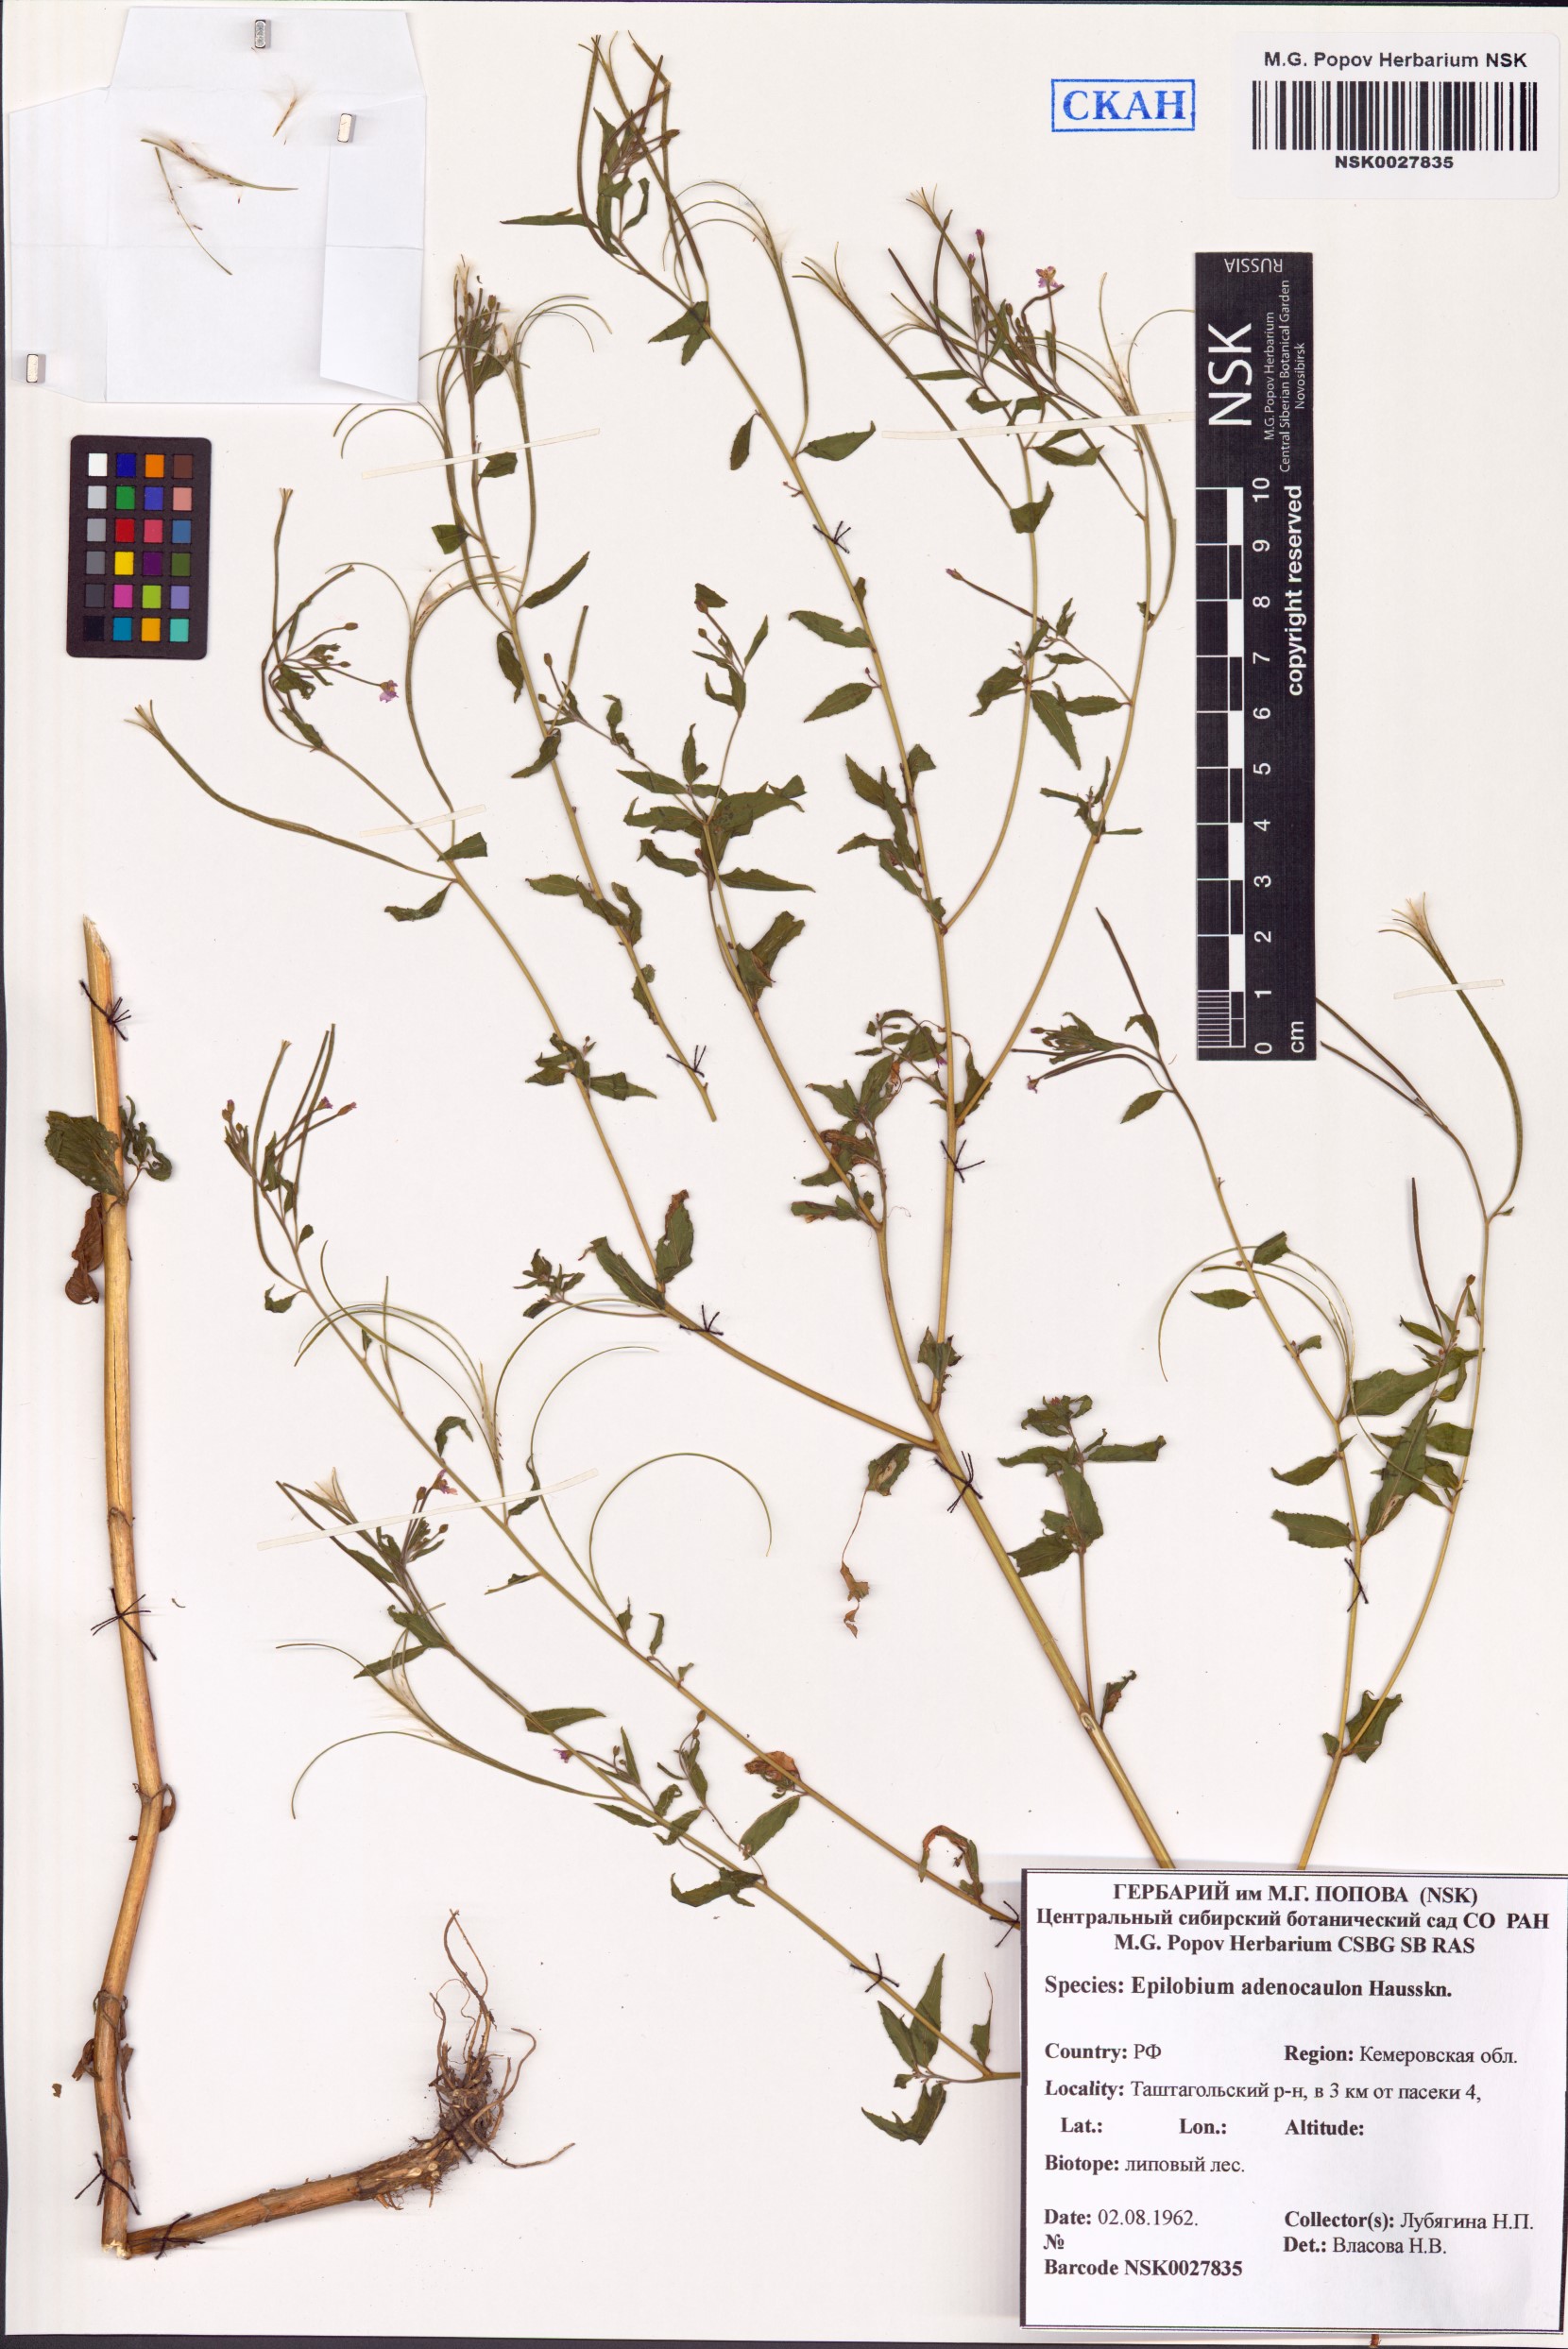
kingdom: Plantae
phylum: Tracheophyta
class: Magnoliopsida
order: Myrtales
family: Onagraceae
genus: Epilobium
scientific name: Epilobium ciliatum
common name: American willowherb
